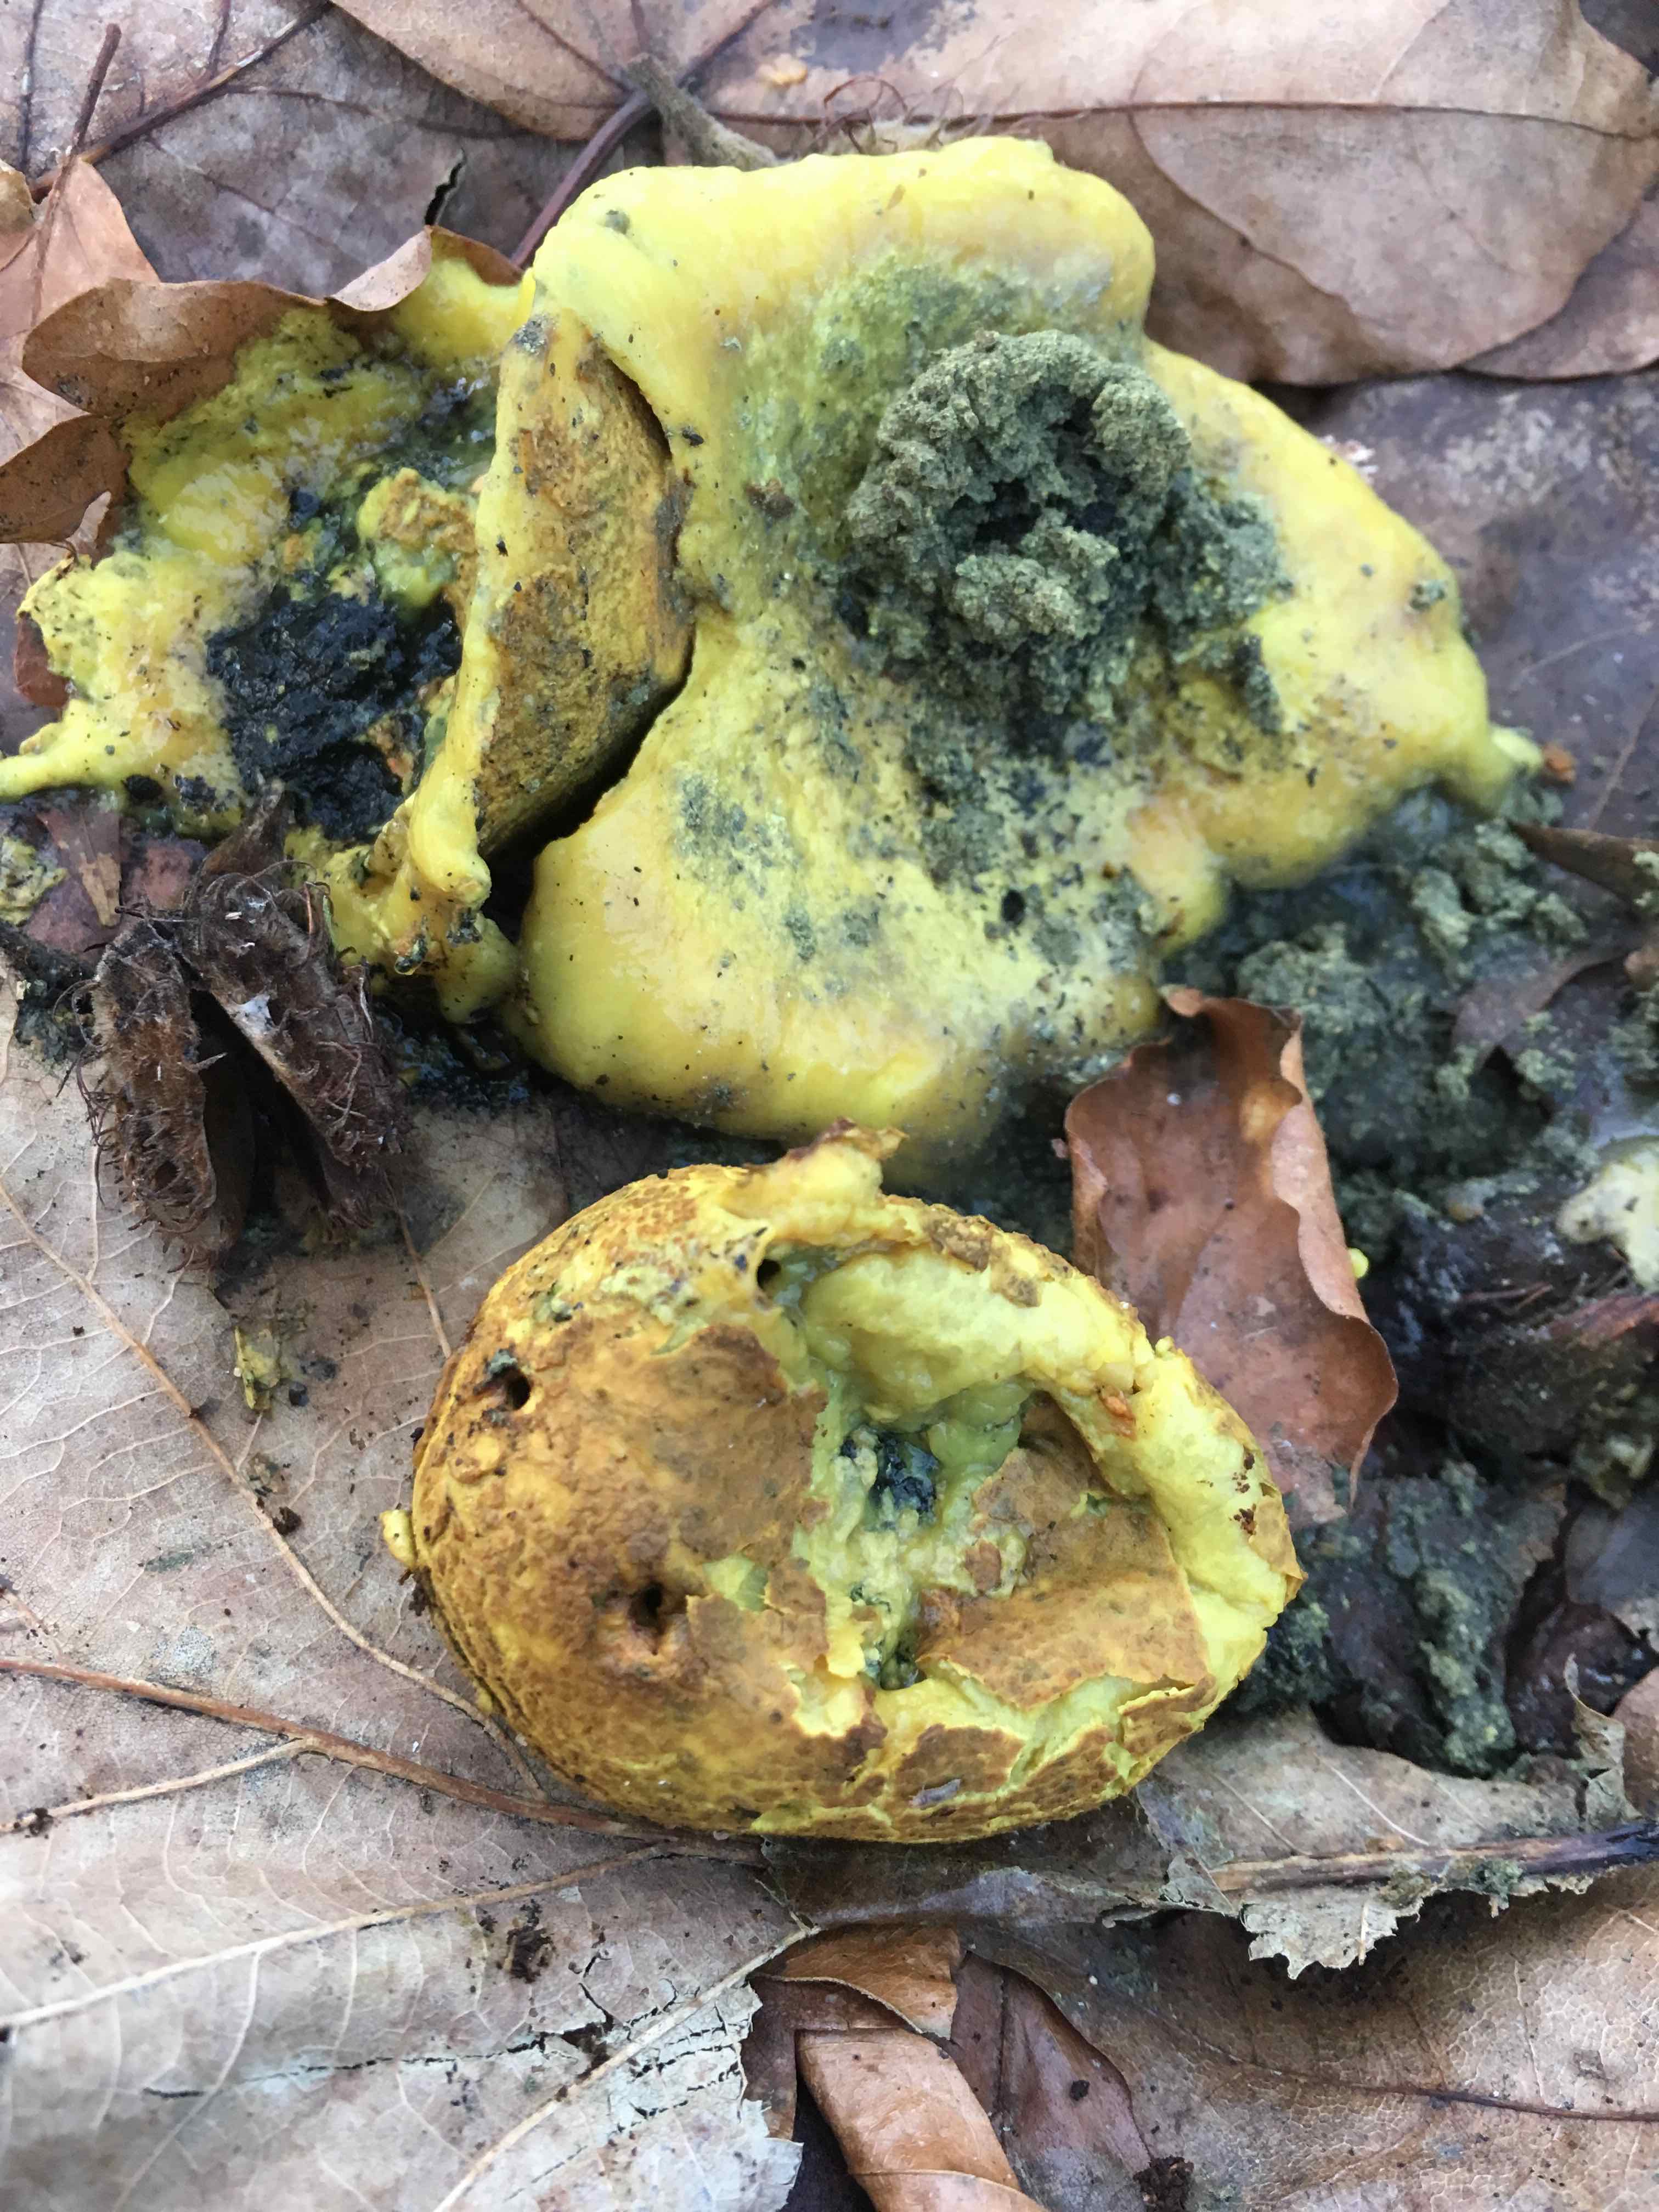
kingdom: Fungi
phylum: Basidiomycota
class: Agaricomycetes
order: Boletales
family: Sclerodermataceae
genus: Scleroderma
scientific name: Scleroderma citrinum
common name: almindelig bruskbold
